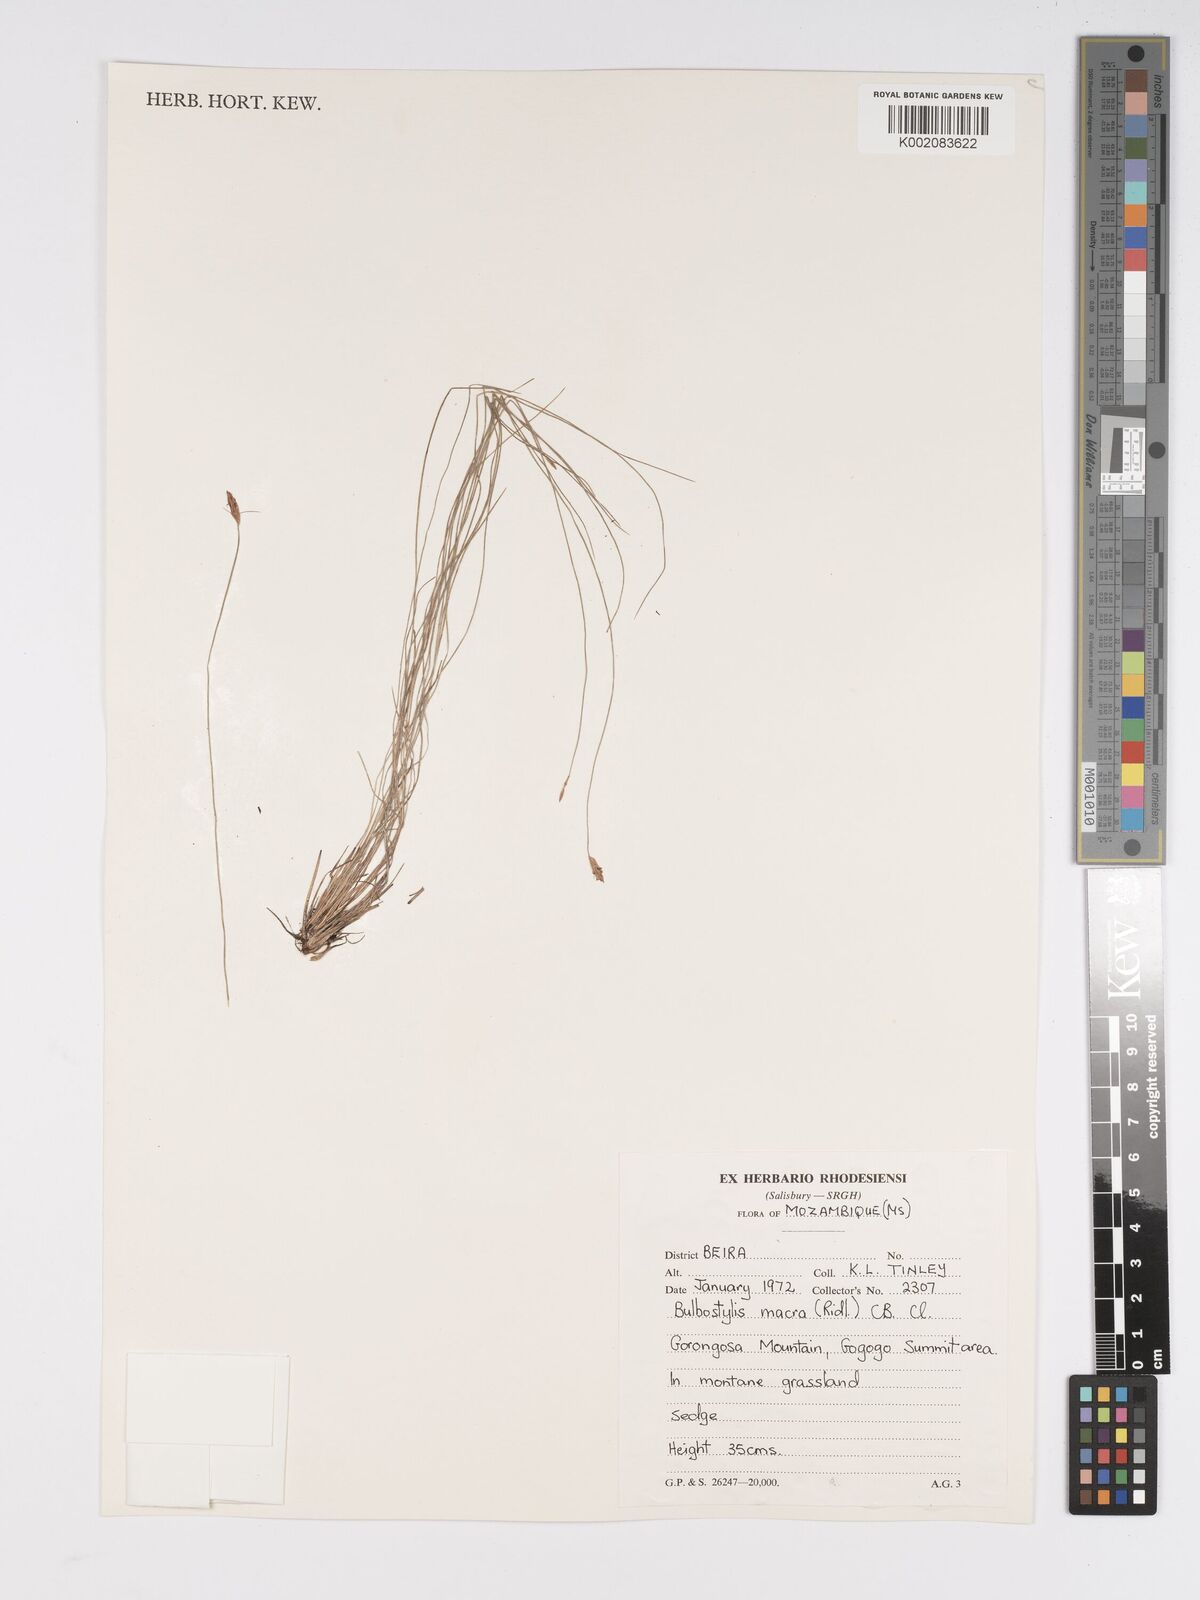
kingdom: Plantae
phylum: Tracheophyta
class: Liliopsida
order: Poales
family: Cyperaceae
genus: Bulbostylis
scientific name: Bulbostylis macra
